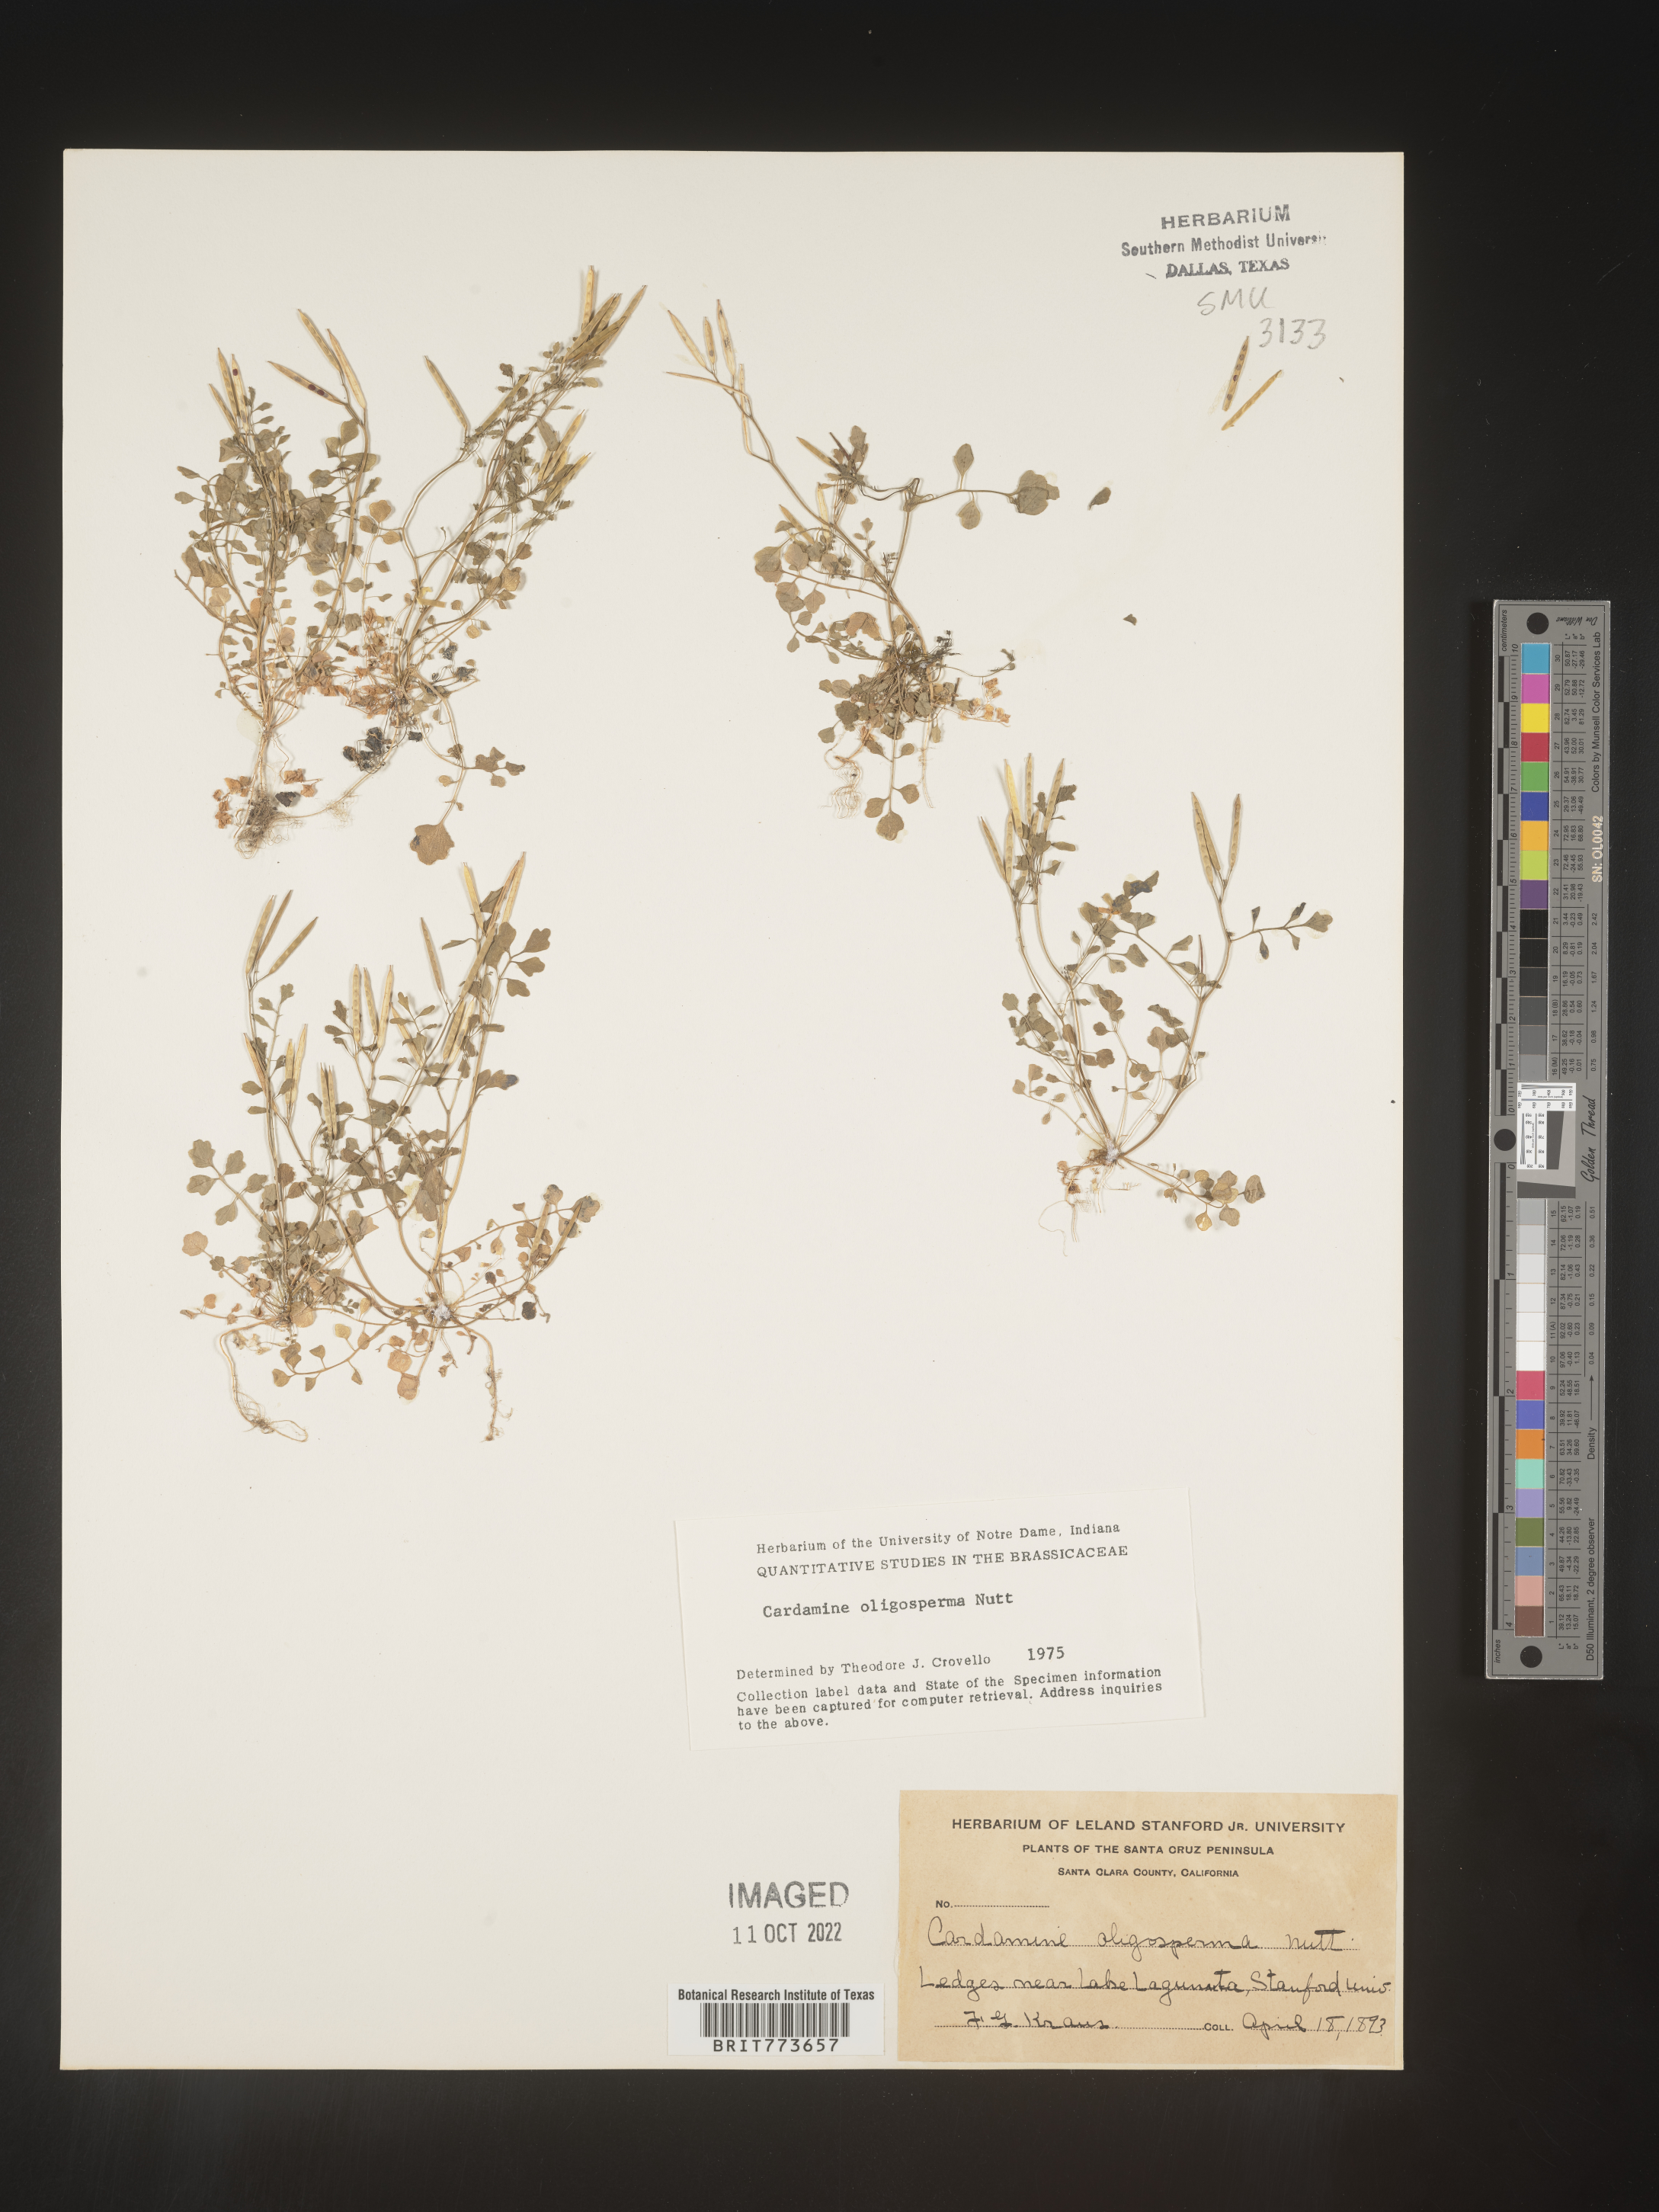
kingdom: Plantae
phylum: Tracheophyta
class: Magnoliopsida
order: Brassicales
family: Brassicaceae
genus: Cardamine
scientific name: Cardamine
